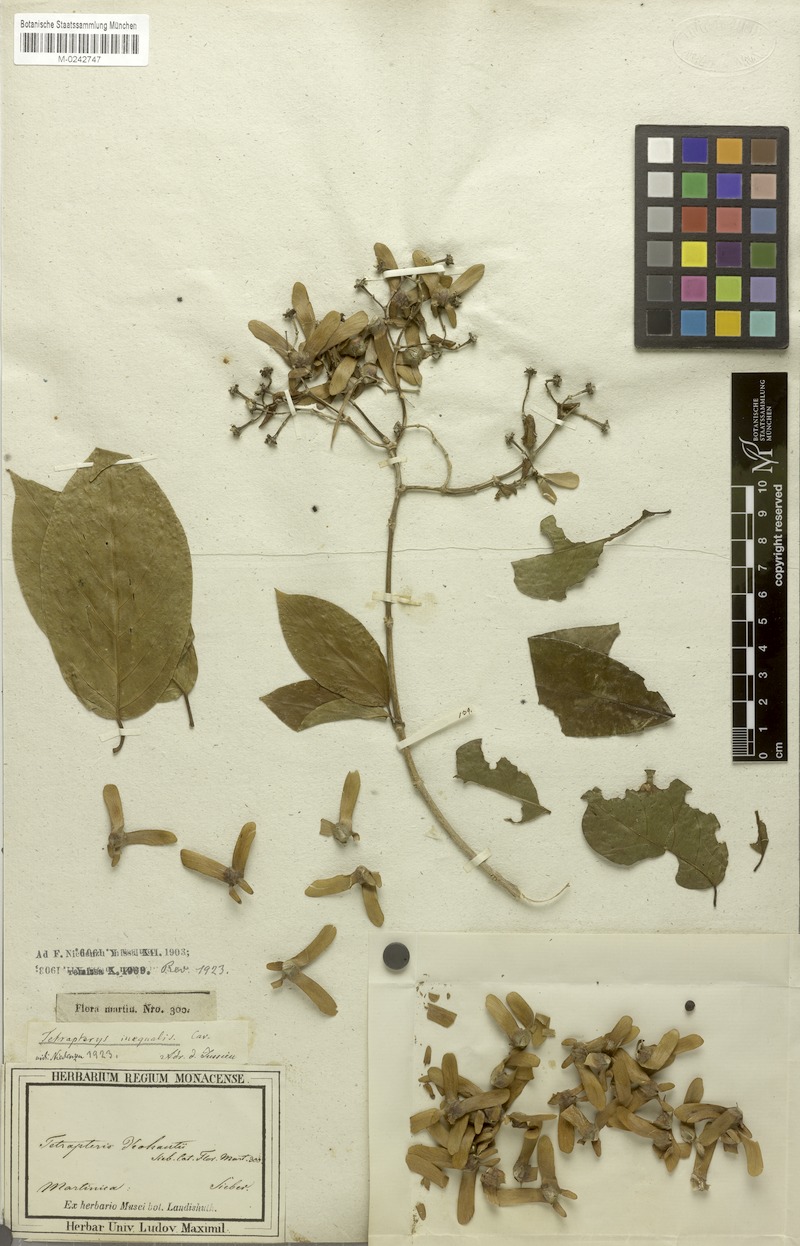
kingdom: Plantae
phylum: Tracheophyta
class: Magnoliopsida
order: Malpighiales
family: Malpighiaceae
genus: Tetrapterys
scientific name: Tetrapterys inaequalis
